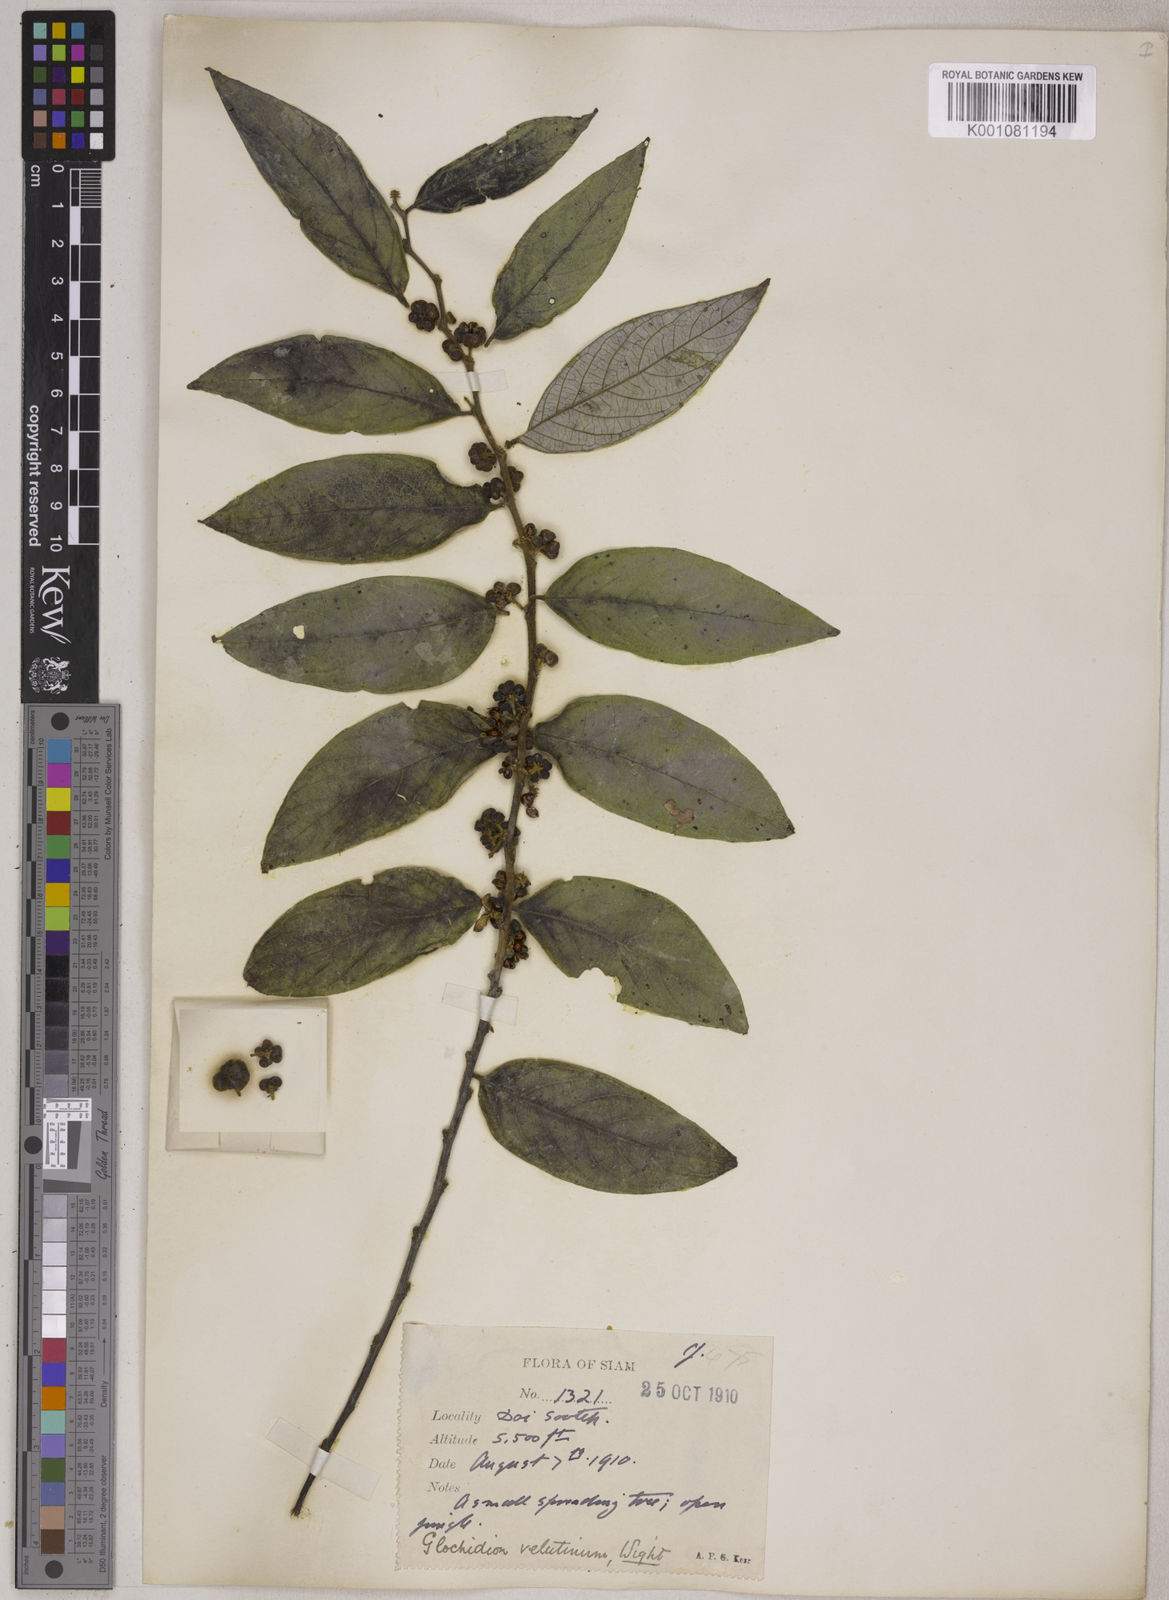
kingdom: Plantae
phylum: Tracheophyta
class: Magnoliopsida
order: Malpighiales
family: Phyllanthaceae
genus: Glochidion
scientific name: Glochidion
